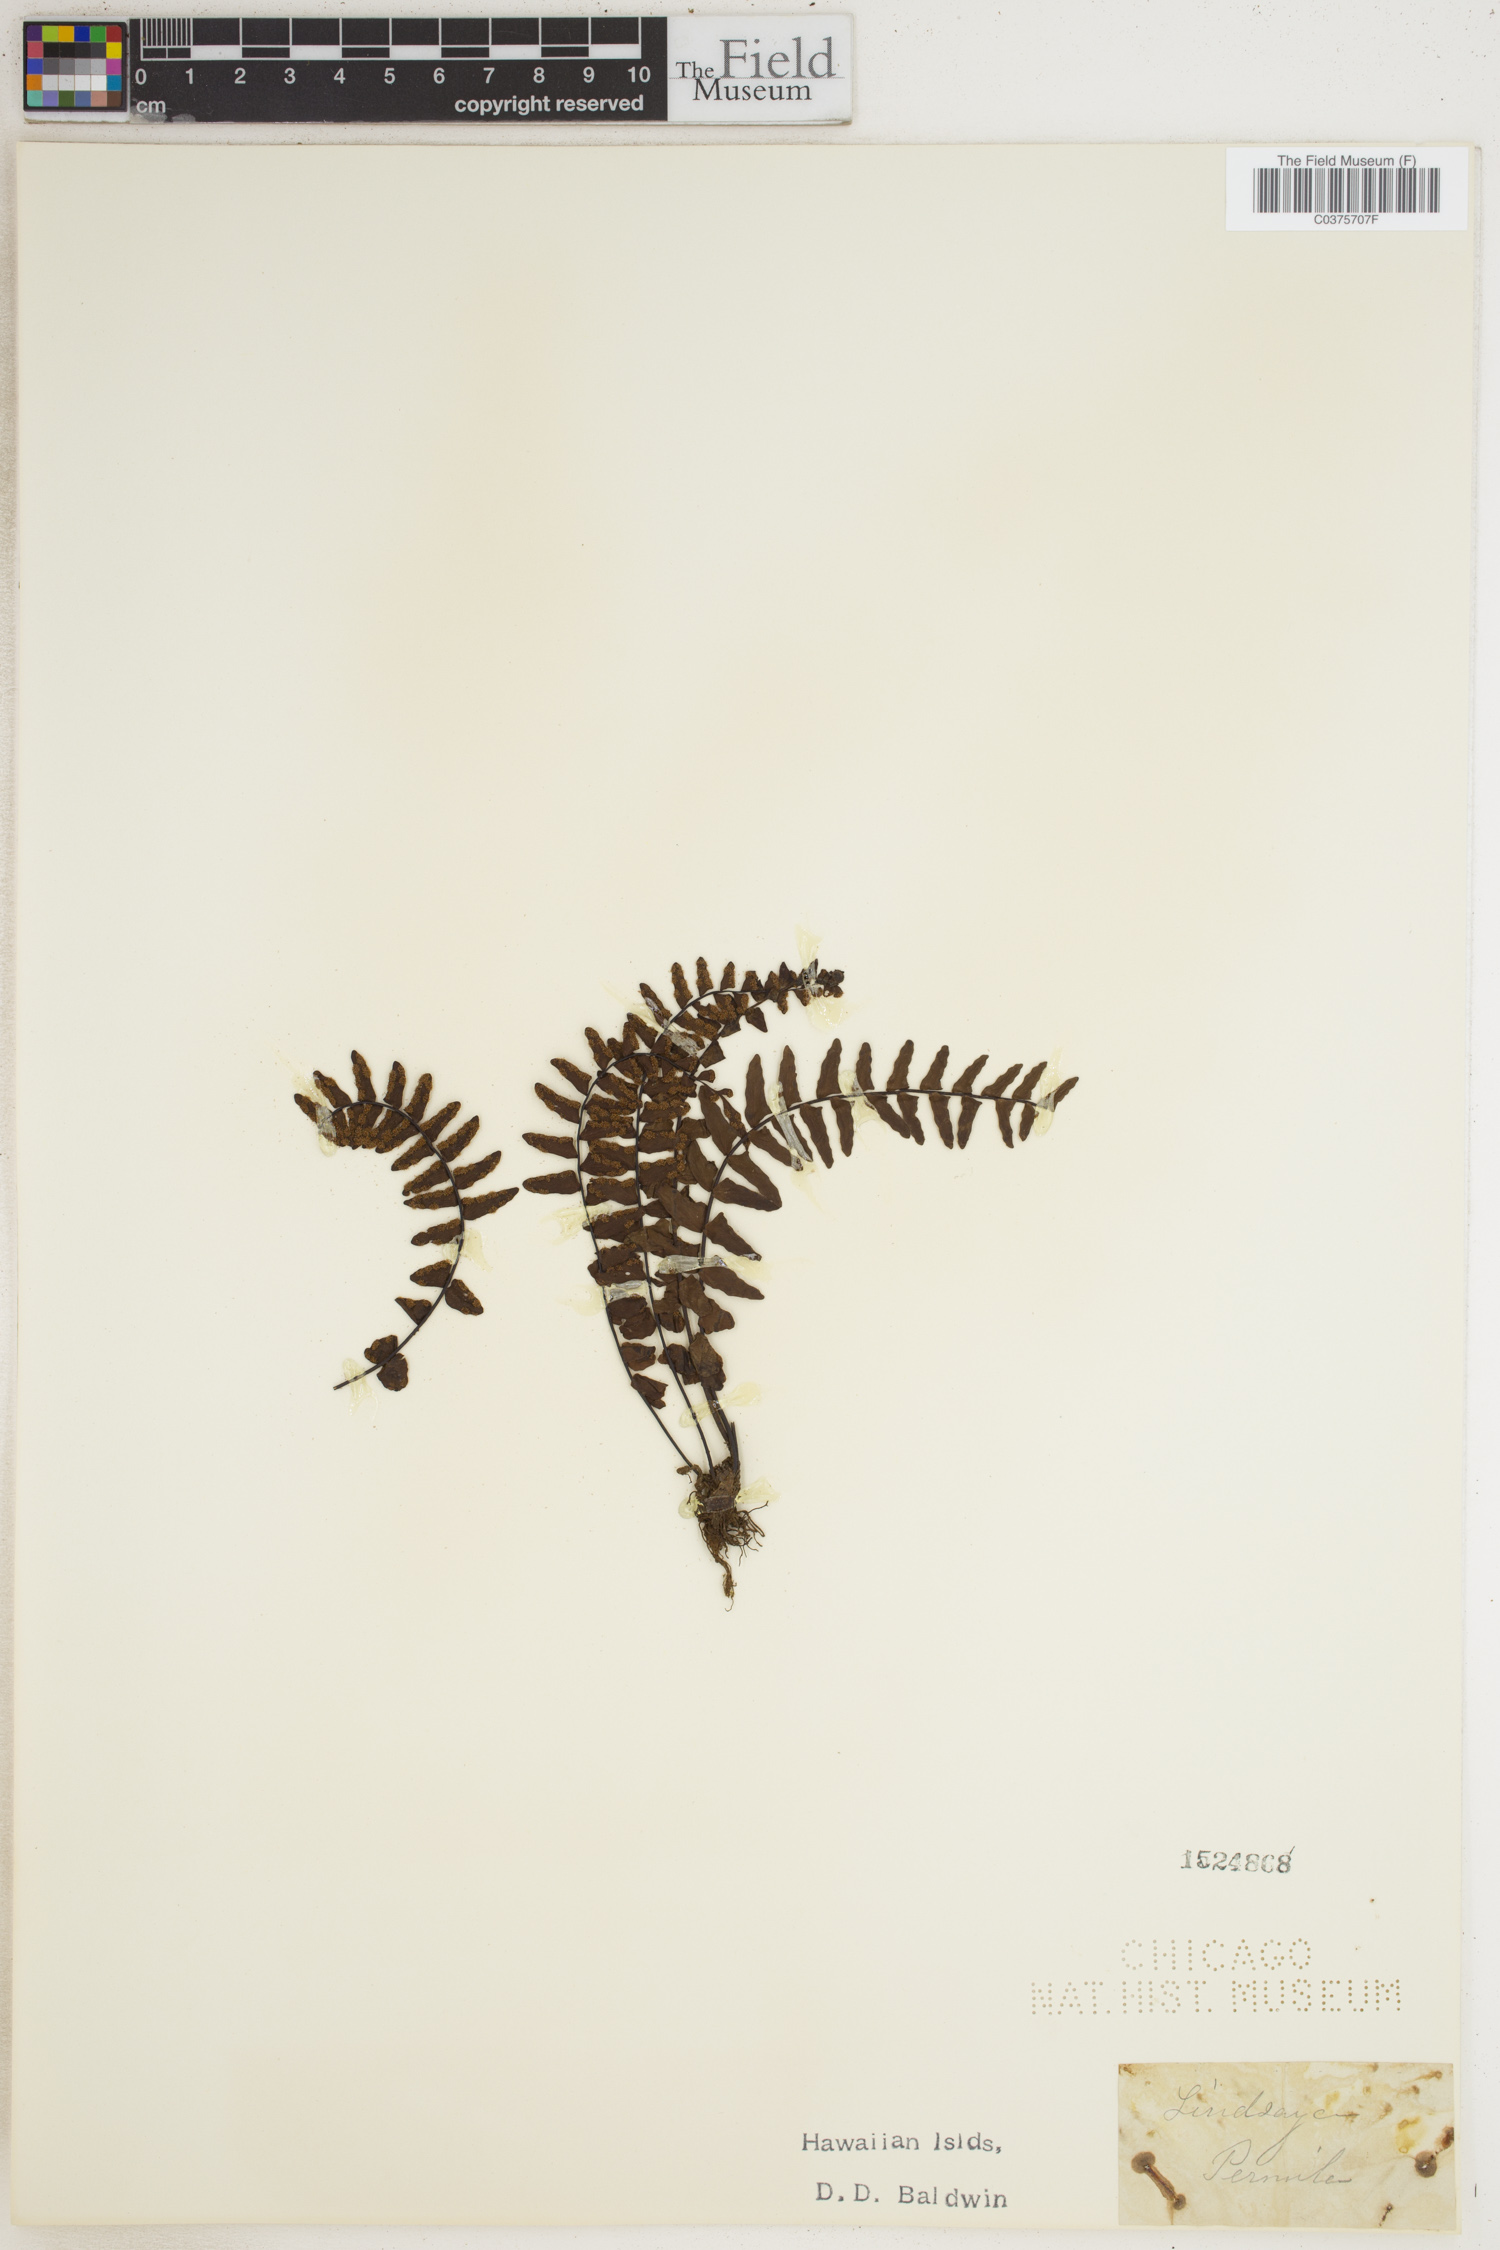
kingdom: Plantae
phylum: Tracheophyta
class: Polypodiopsida
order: Polypodiales
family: Lindsaeaceae
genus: Lindsaea
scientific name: Lindsaea
